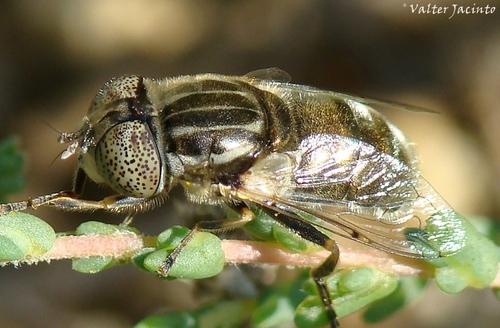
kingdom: Animalia
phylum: Arthropoda
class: Insecta
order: Diptera
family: Syrphidae
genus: Eristalinus
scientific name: Eristalinus aeneus
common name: Syrphid fly
